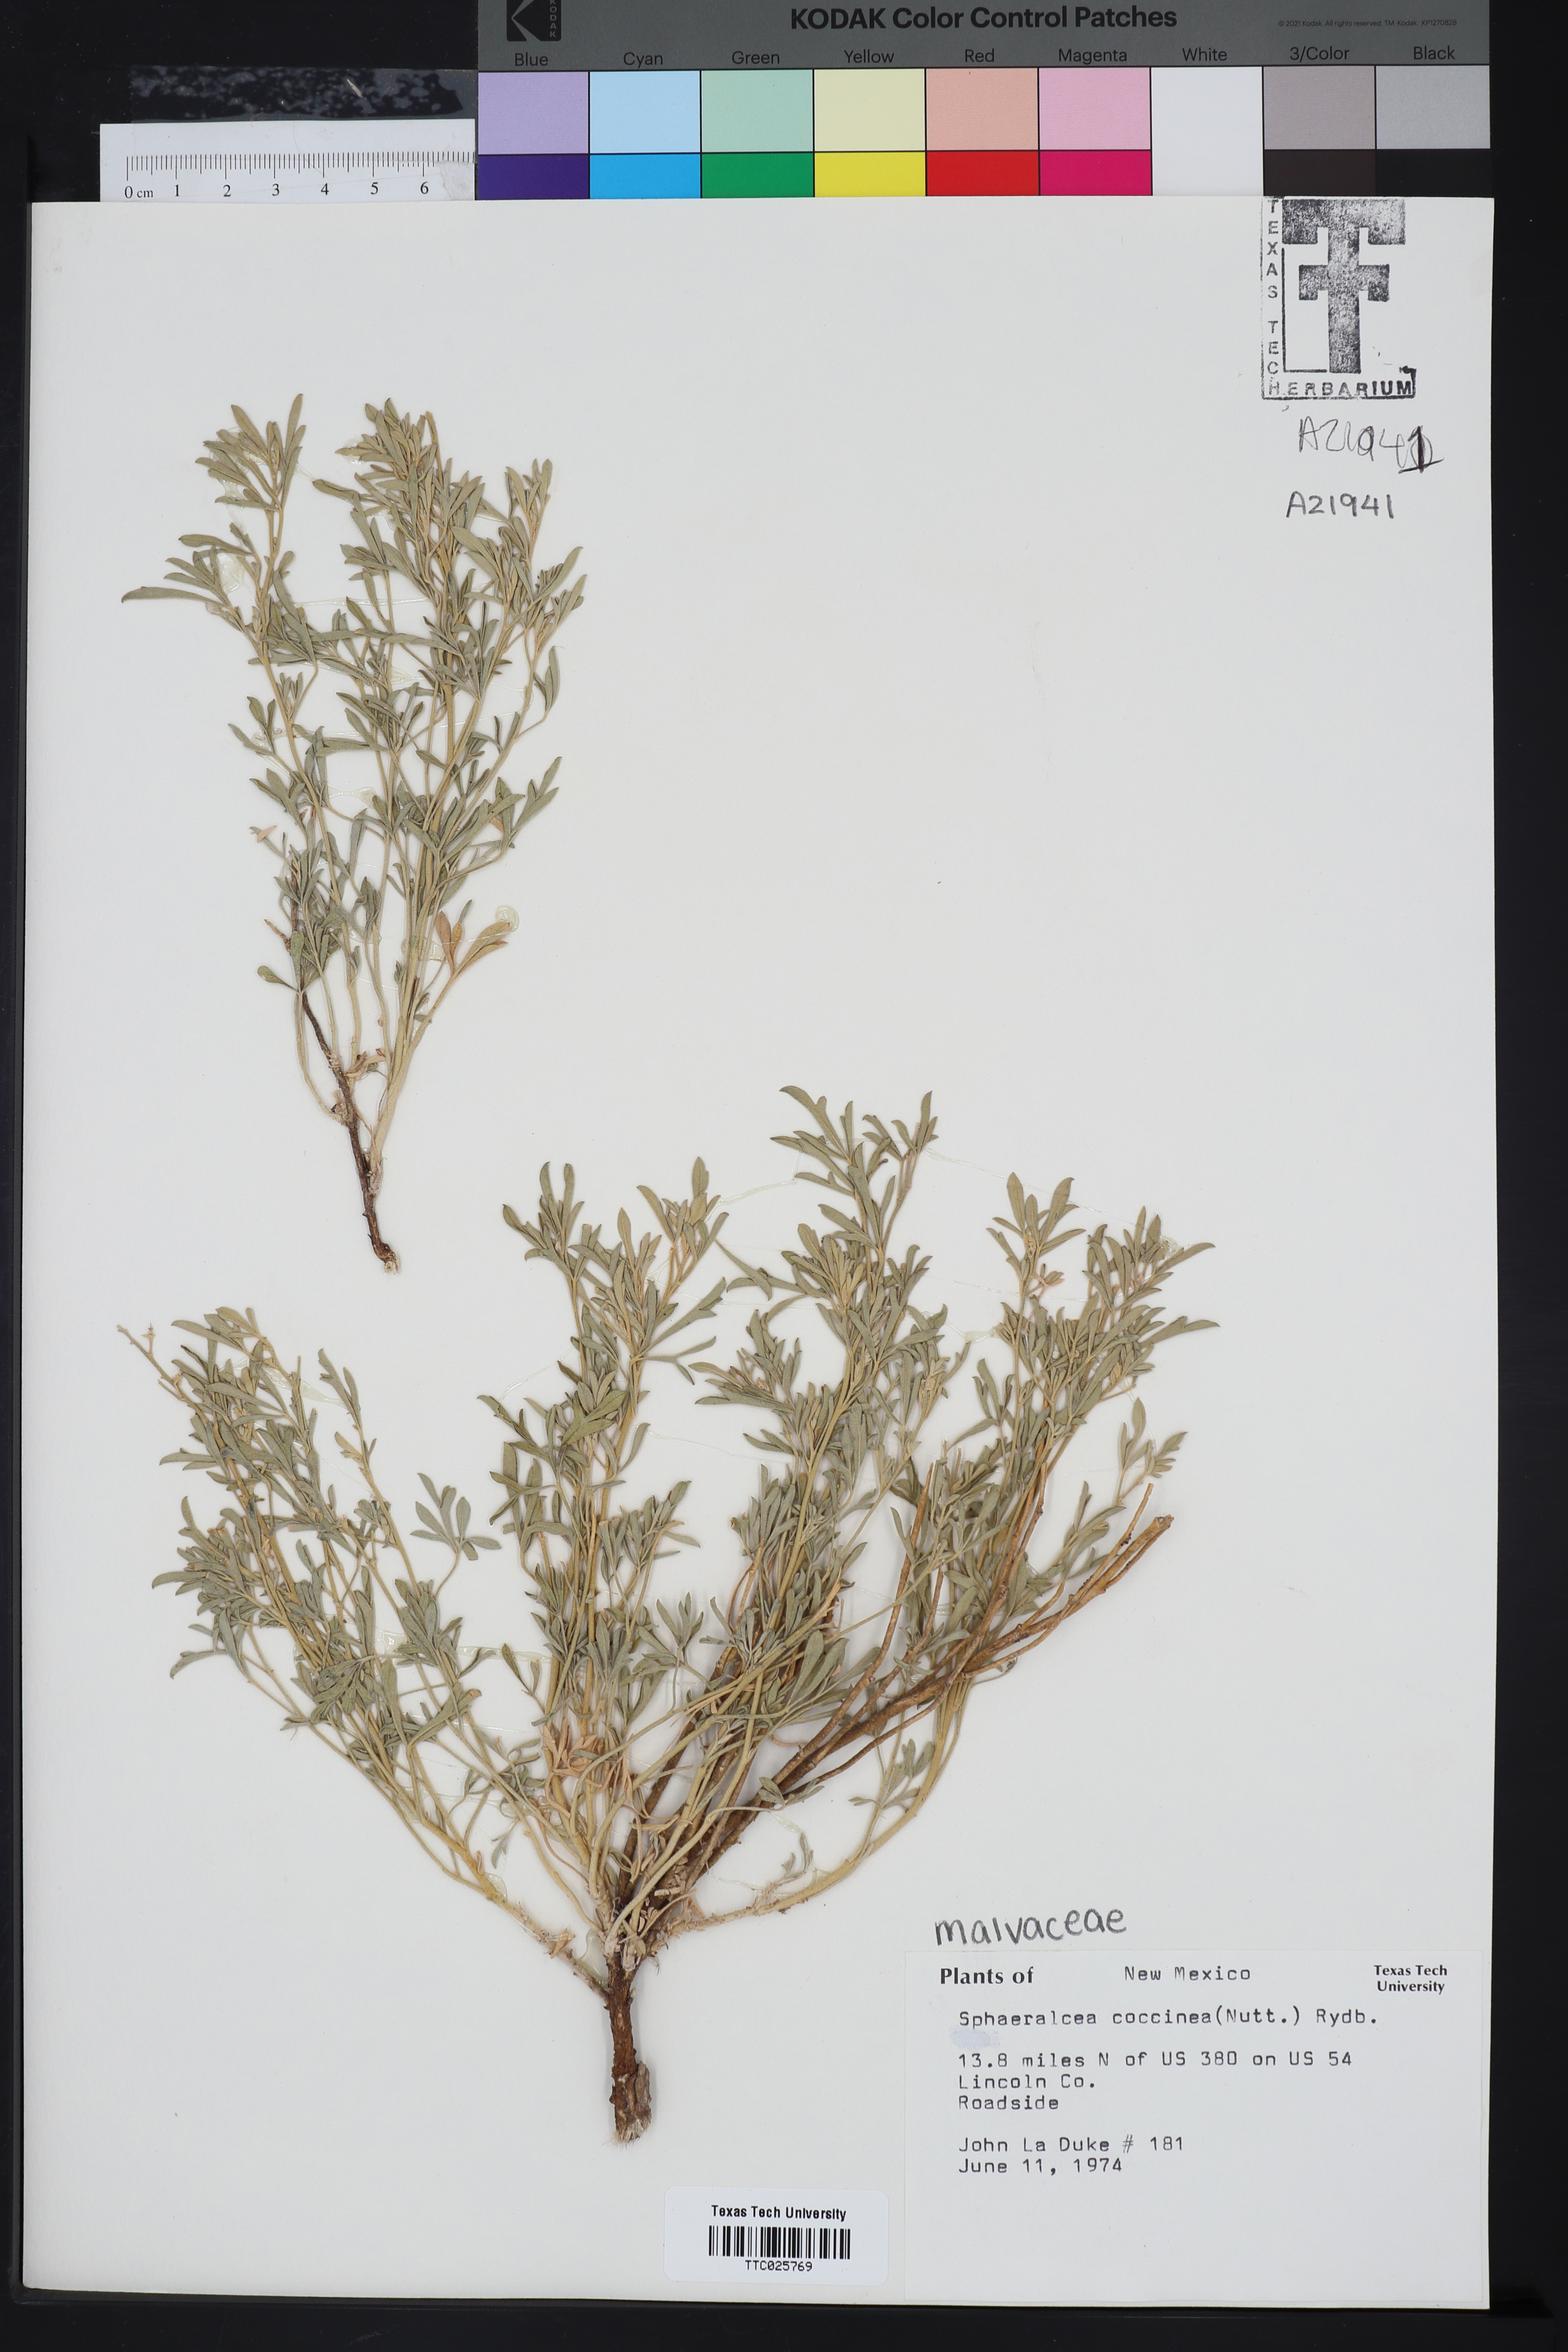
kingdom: Plantae
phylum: Tracheophyta
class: Magnoliopsida
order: Malvales
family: Malvaceae
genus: Sphaeralcea
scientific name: Sphaeralcea coccinea
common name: Moss-rose
